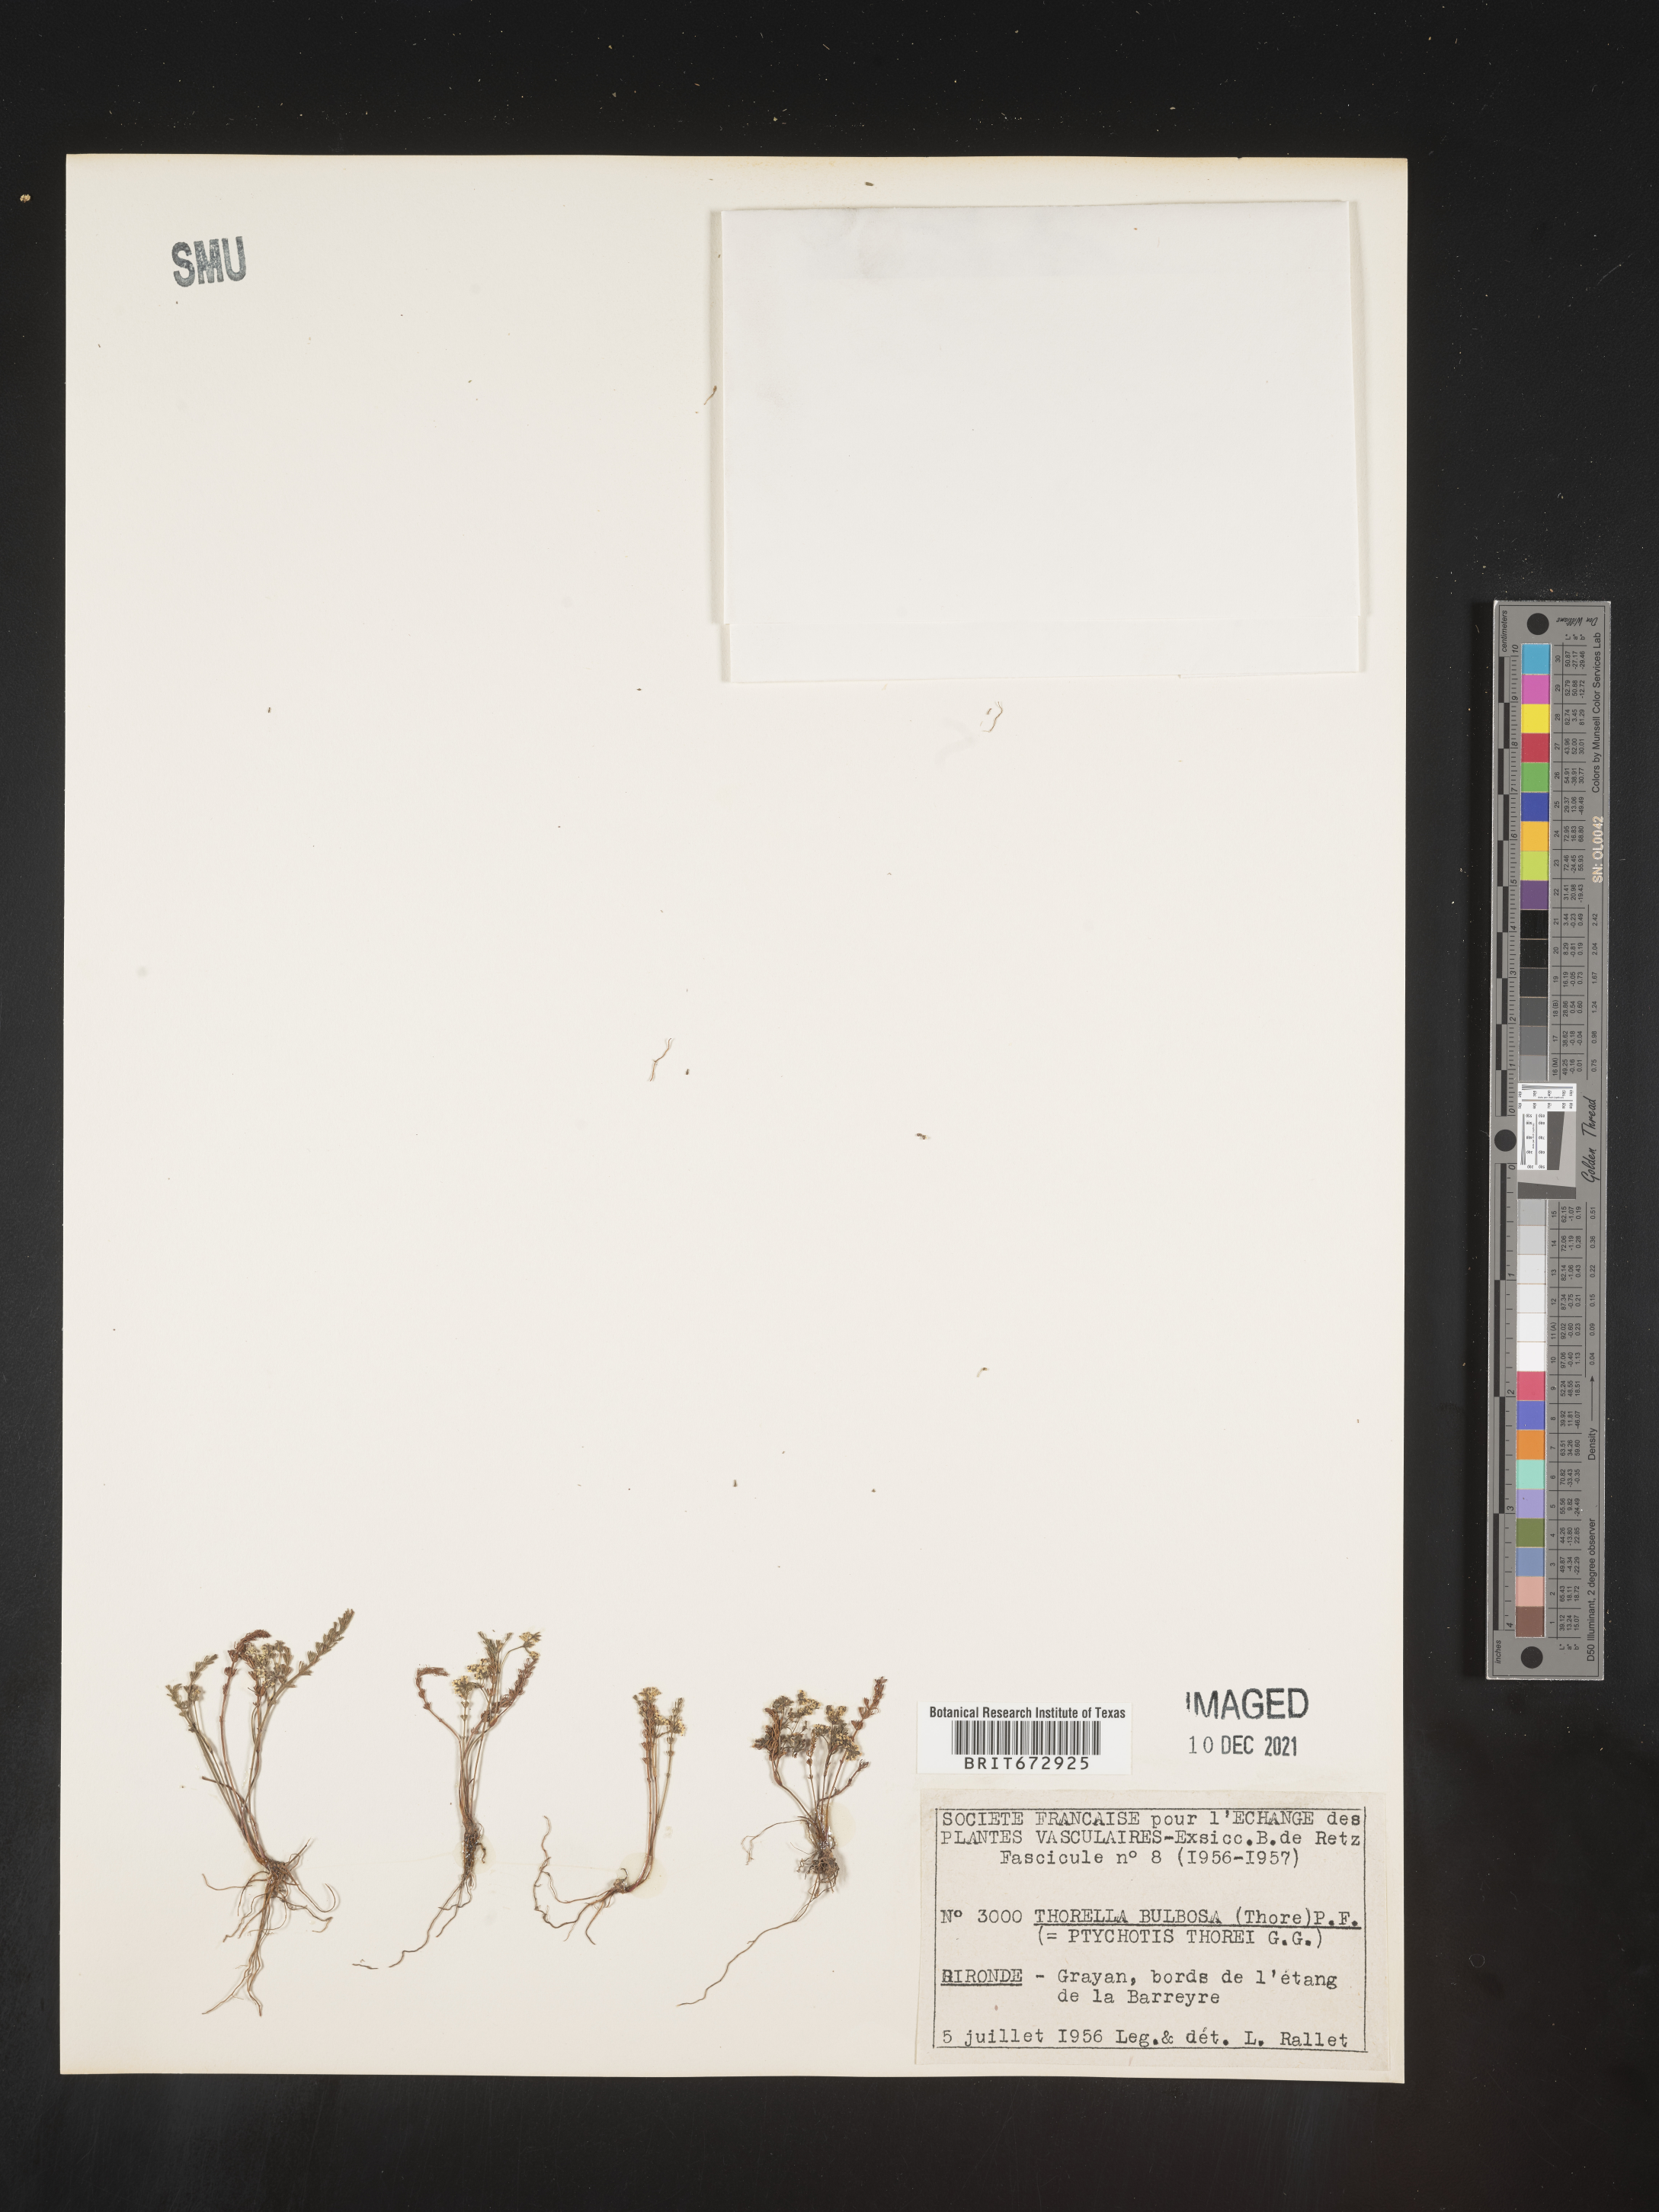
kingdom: Plantae
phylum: Tracheophyta
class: Magnoliopsida
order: Apiales
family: Apiaceae
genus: Caropsis
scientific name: Caropsis verticillatoinundata
